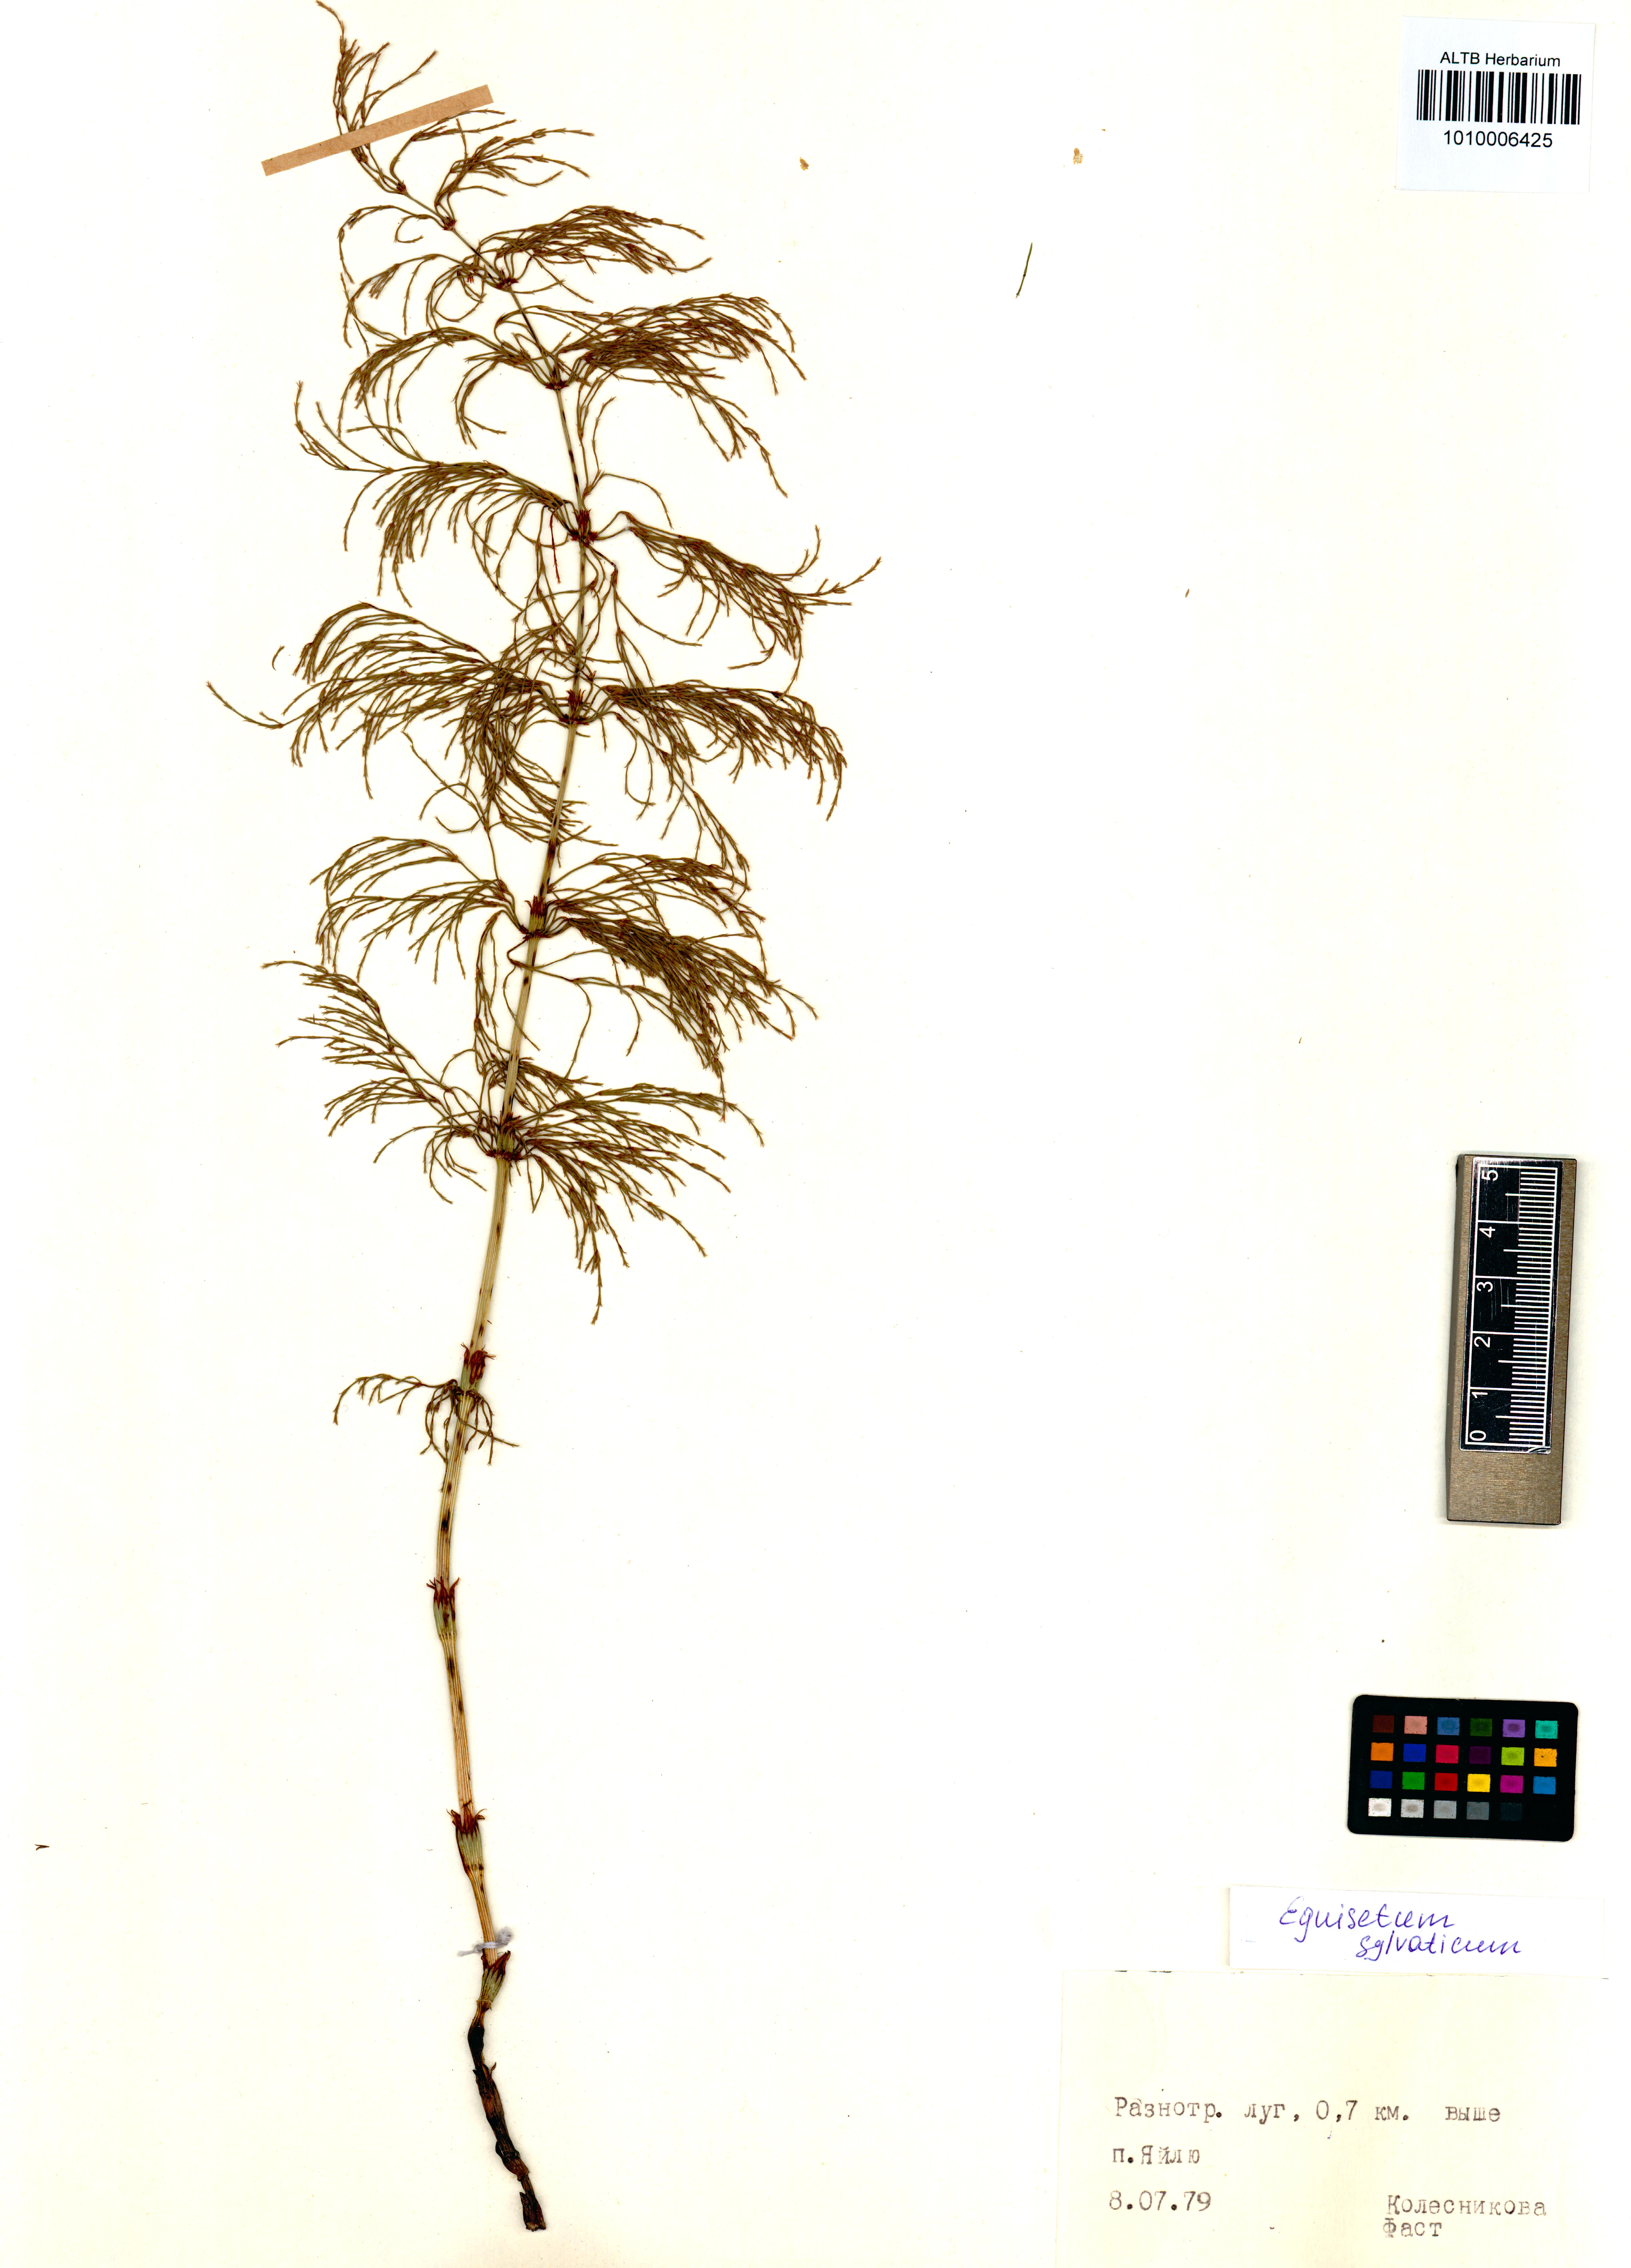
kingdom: Plantae
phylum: Tracheophyta
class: Polypodiopsida
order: Equisetales
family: Equisetaceae
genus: Equisetum
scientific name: Equisetum sylvaticum
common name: Wood horsetail
